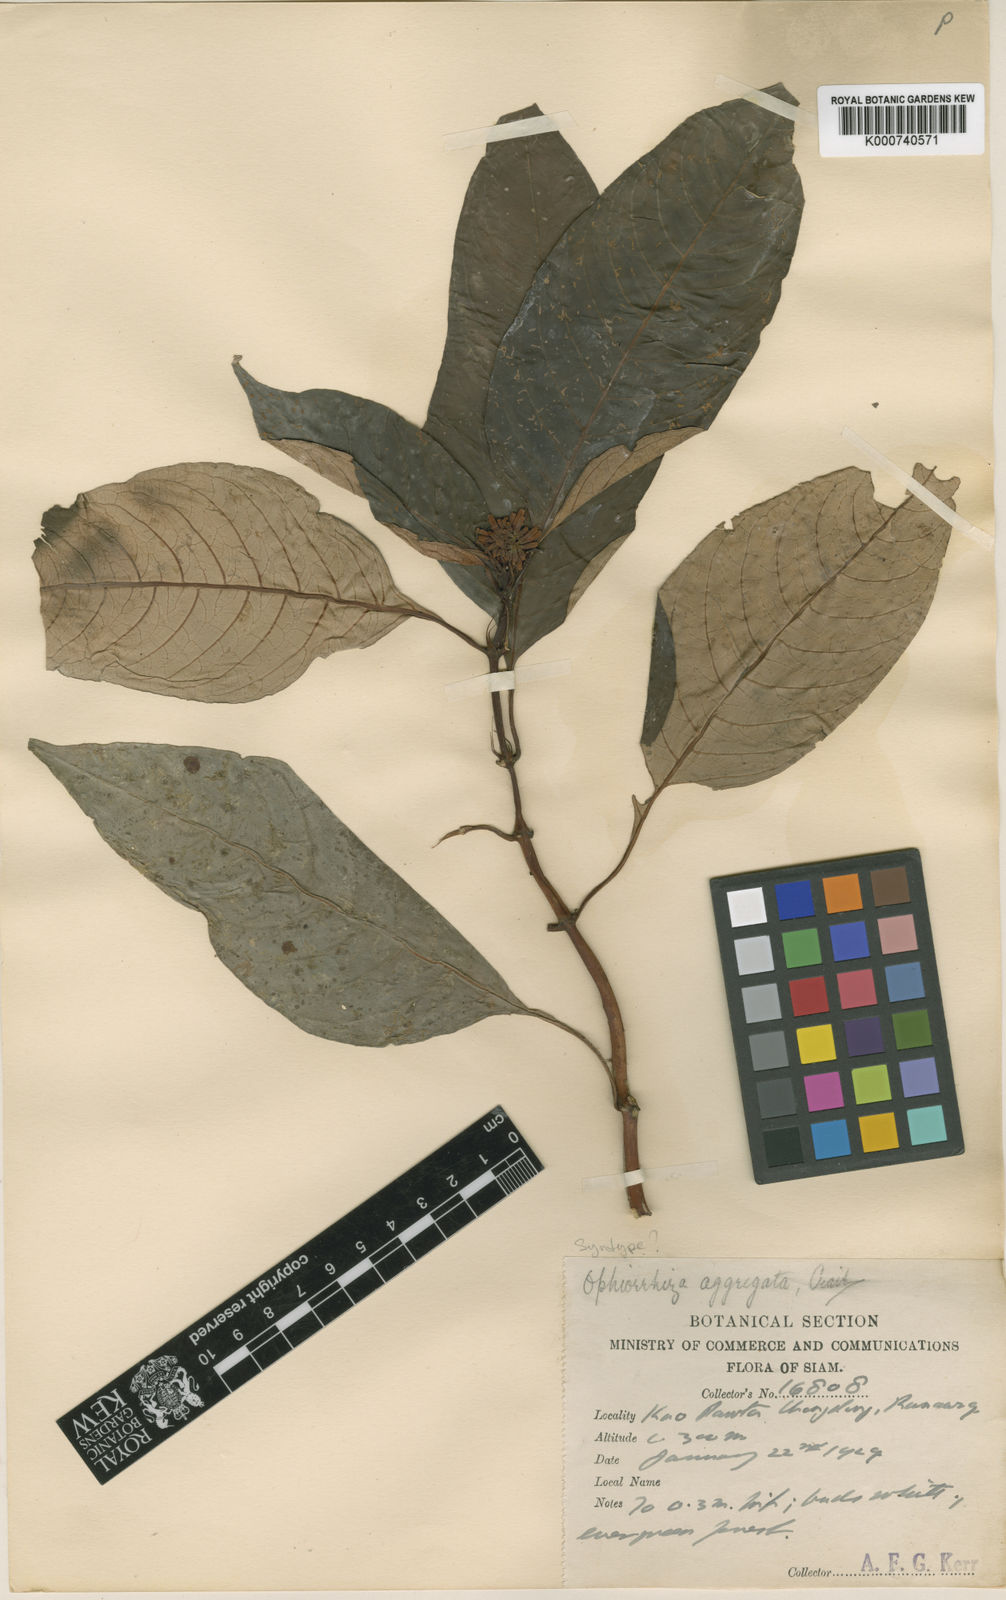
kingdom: Plantae
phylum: Tracheophyta
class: Magnoliopsida
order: Gentianales
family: Rubiaceae
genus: Ophiorrhiza
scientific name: Ophiorrhiza erubescens
